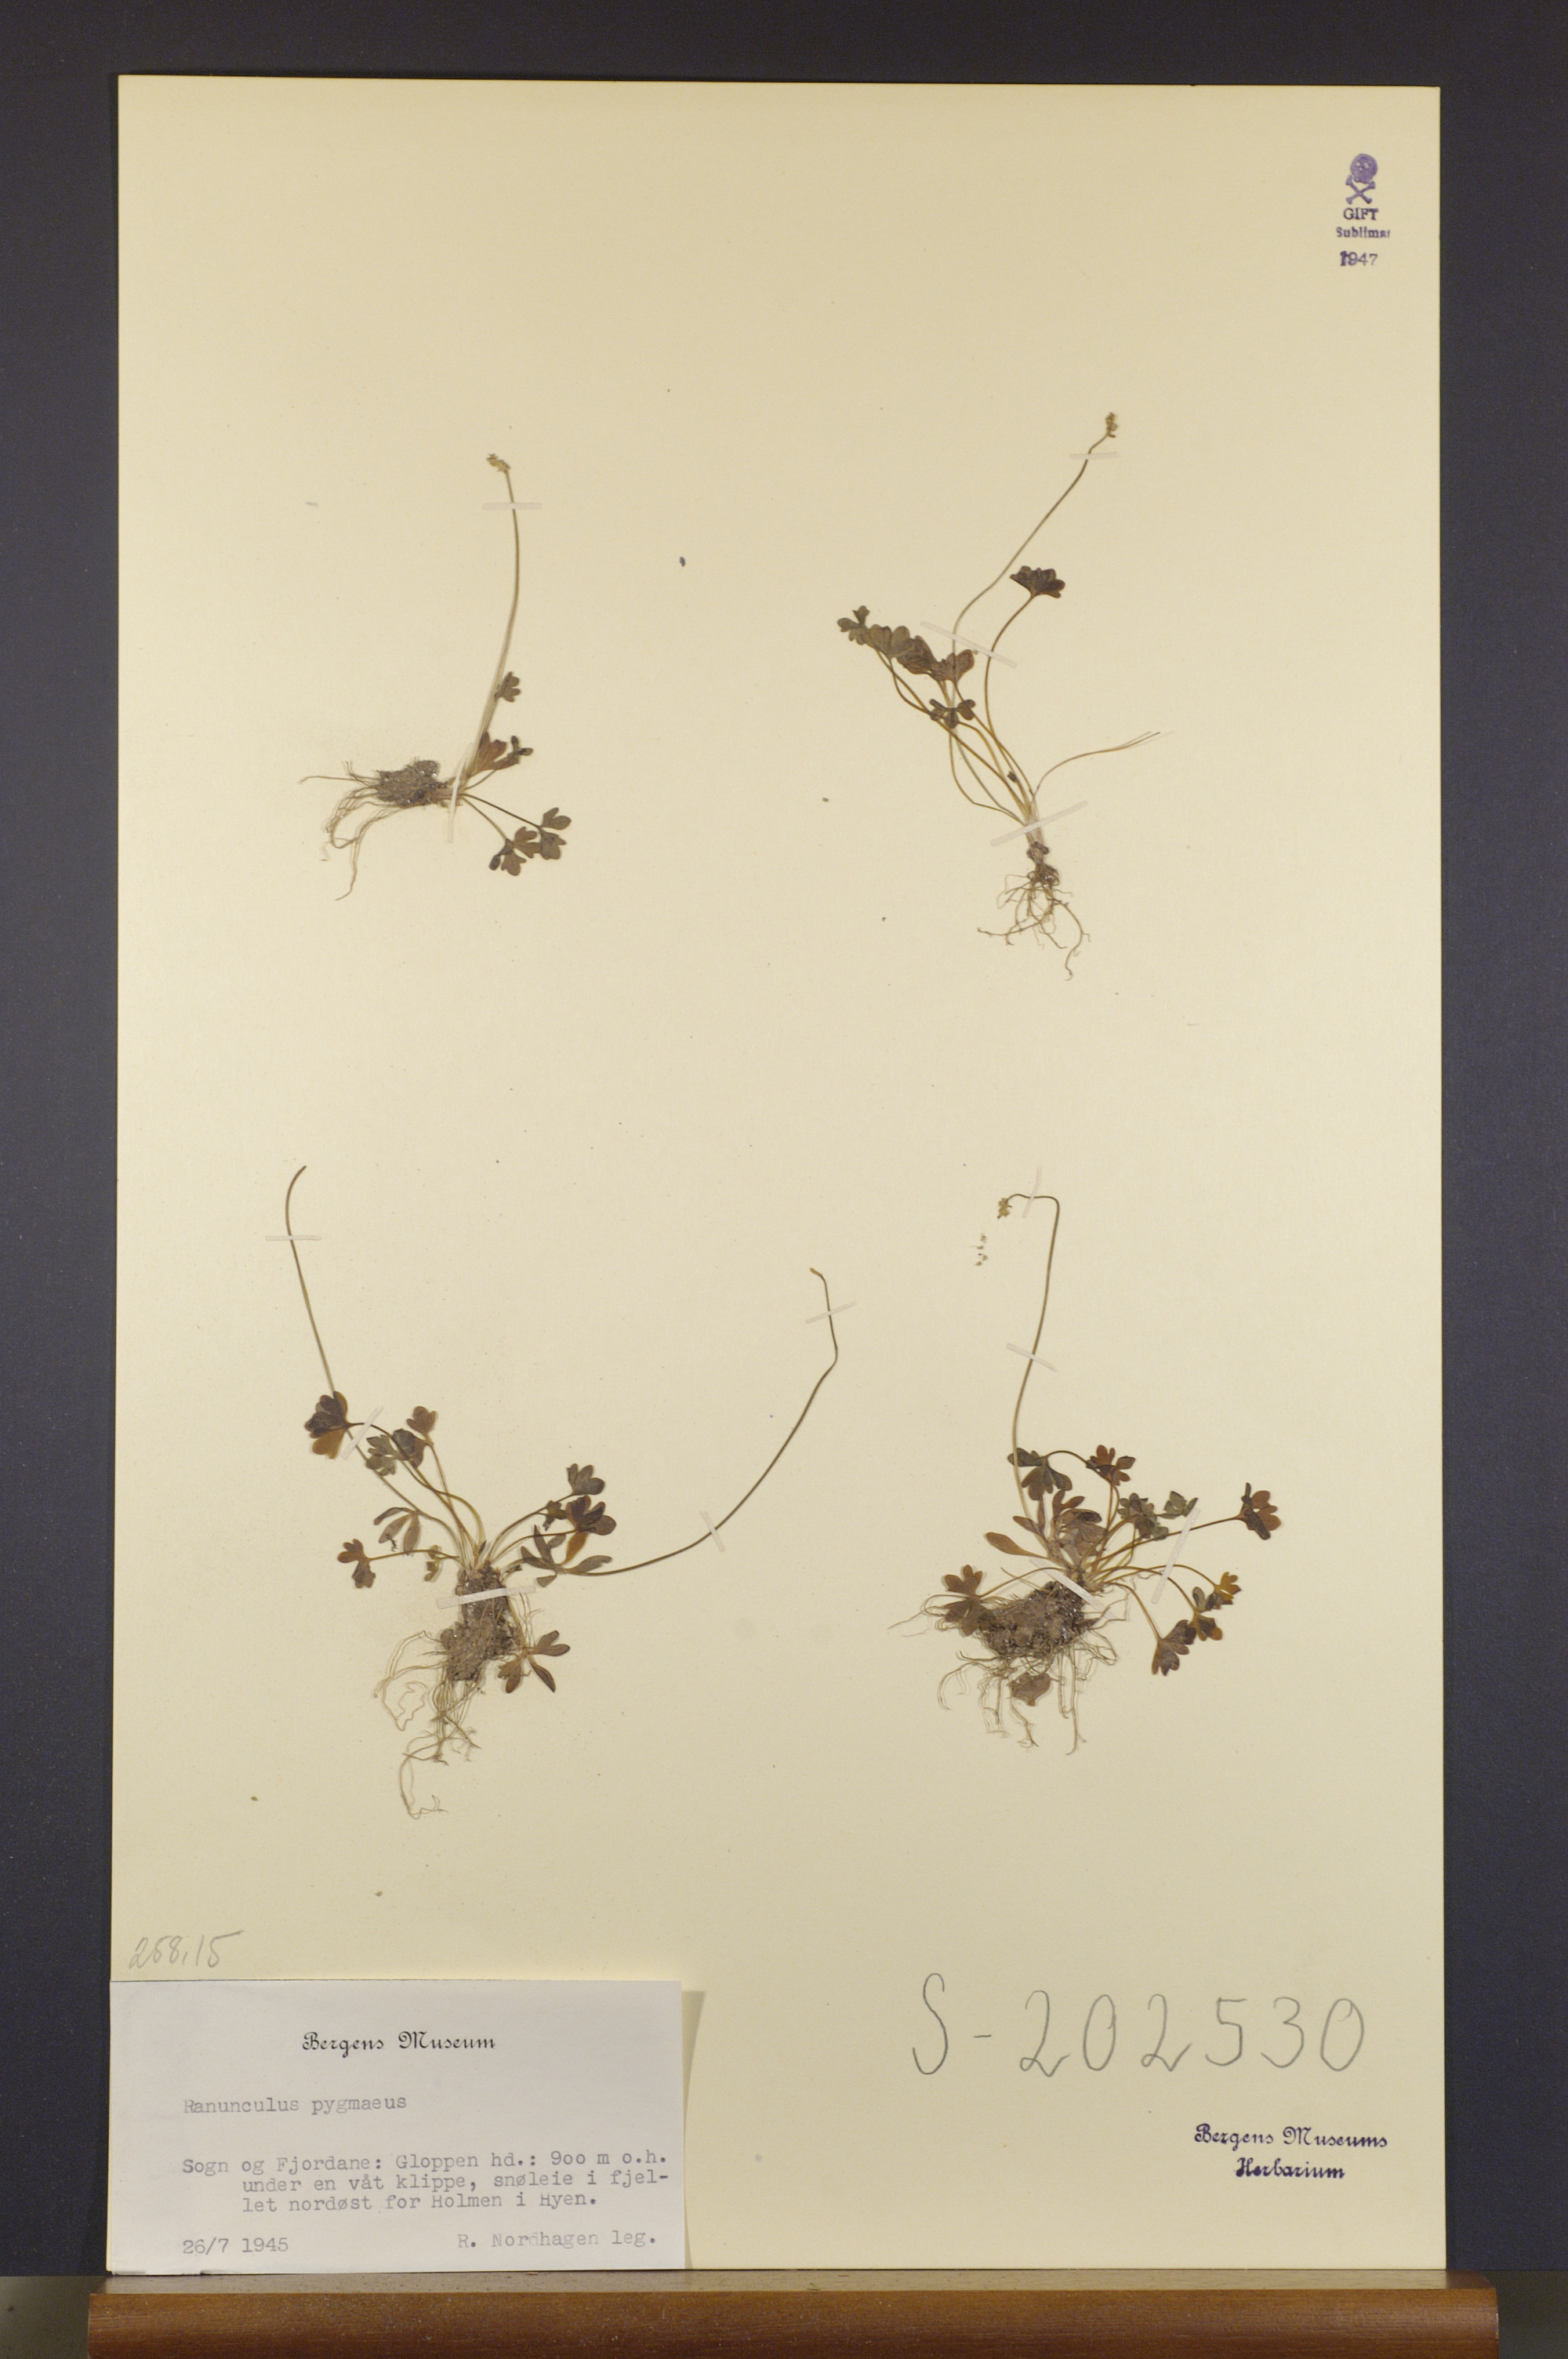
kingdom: Plantae
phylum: Tracheophyta
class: Magnoliopsida
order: Ranunculales
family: Ranunculaceae
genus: Ranunculus
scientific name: Ranunculus pygmaeus
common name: Dwarf buttercup
